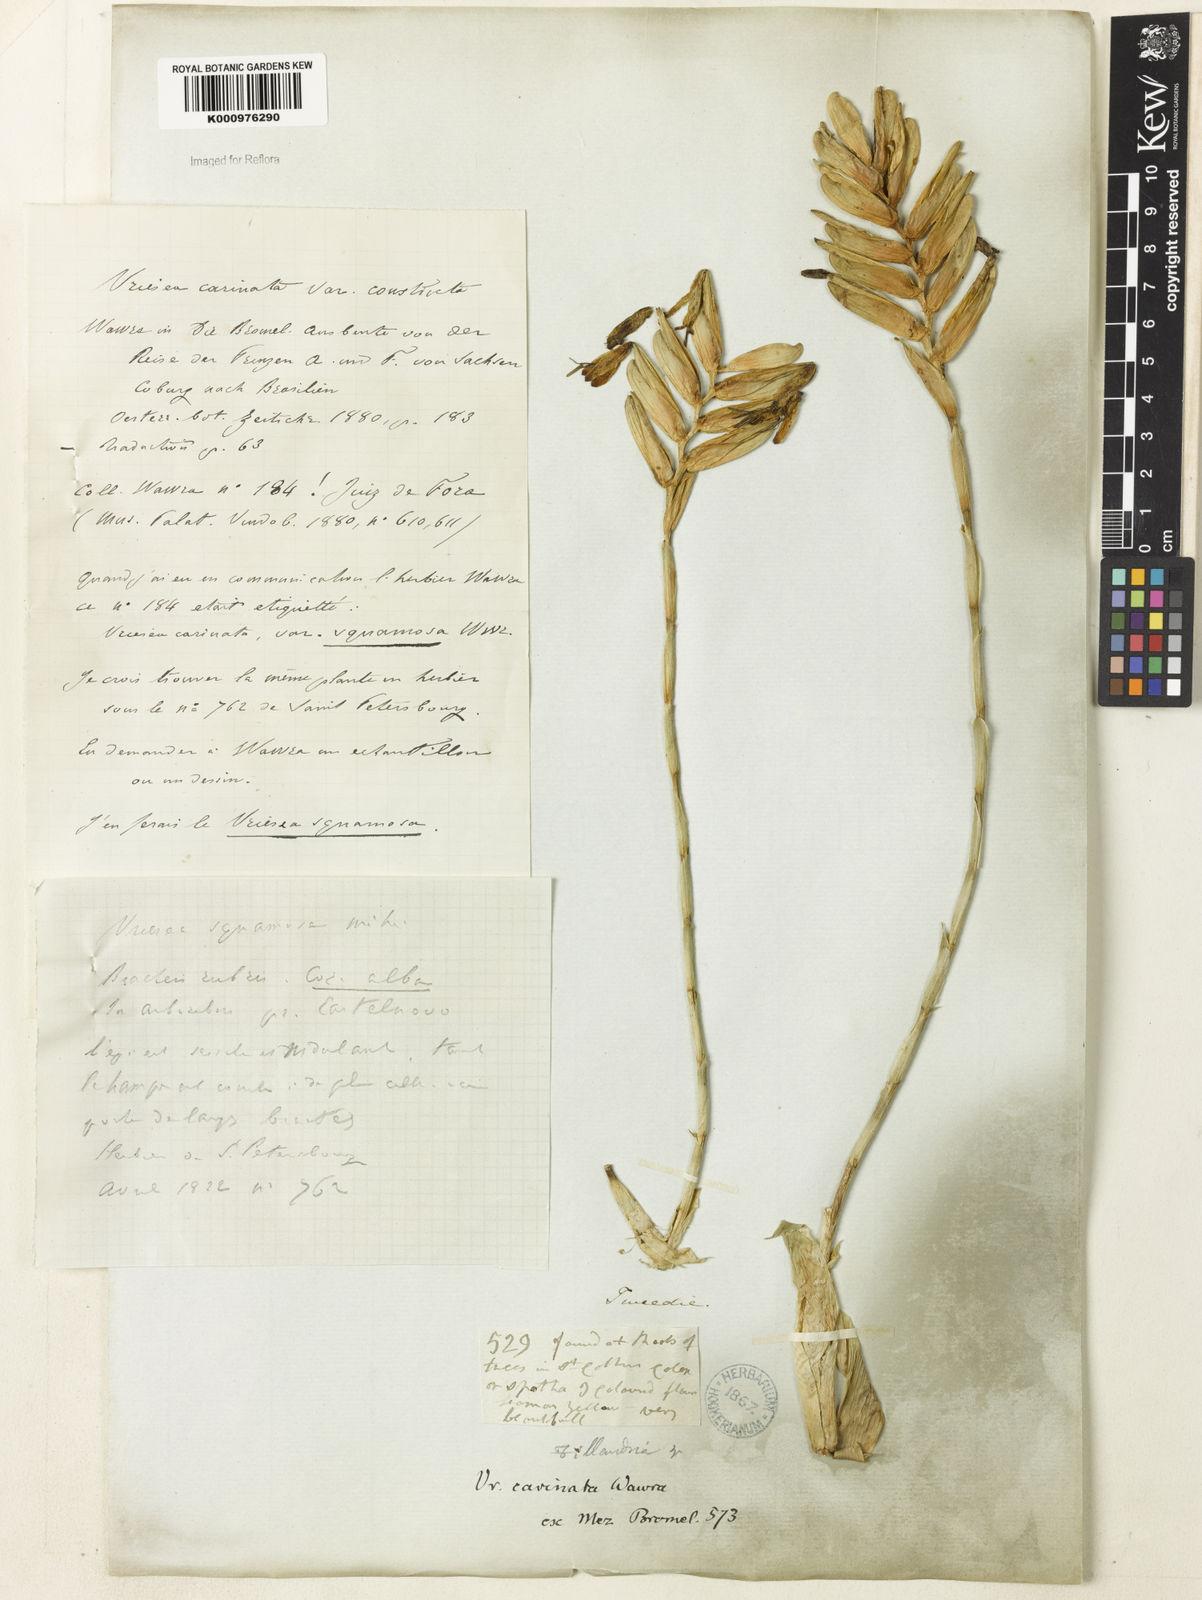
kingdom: Plantae
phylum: Tracheophyta
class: Liliopsida
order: Poales
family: Bromeliaceae
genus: Vriesea
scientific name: Vriesea carinata
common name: Lobster-claws
